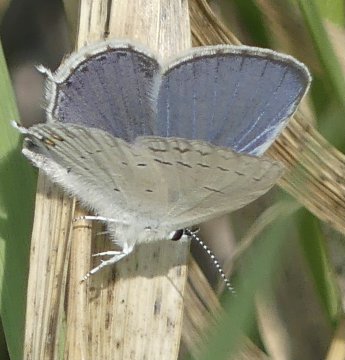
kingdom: Animalia
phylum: Arthropoda
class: Insecta
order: Lepidoptera
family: Lycaenidae
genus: Elkalyce
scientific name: Elkalyce amyntula
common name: Western Tailed-Blue
